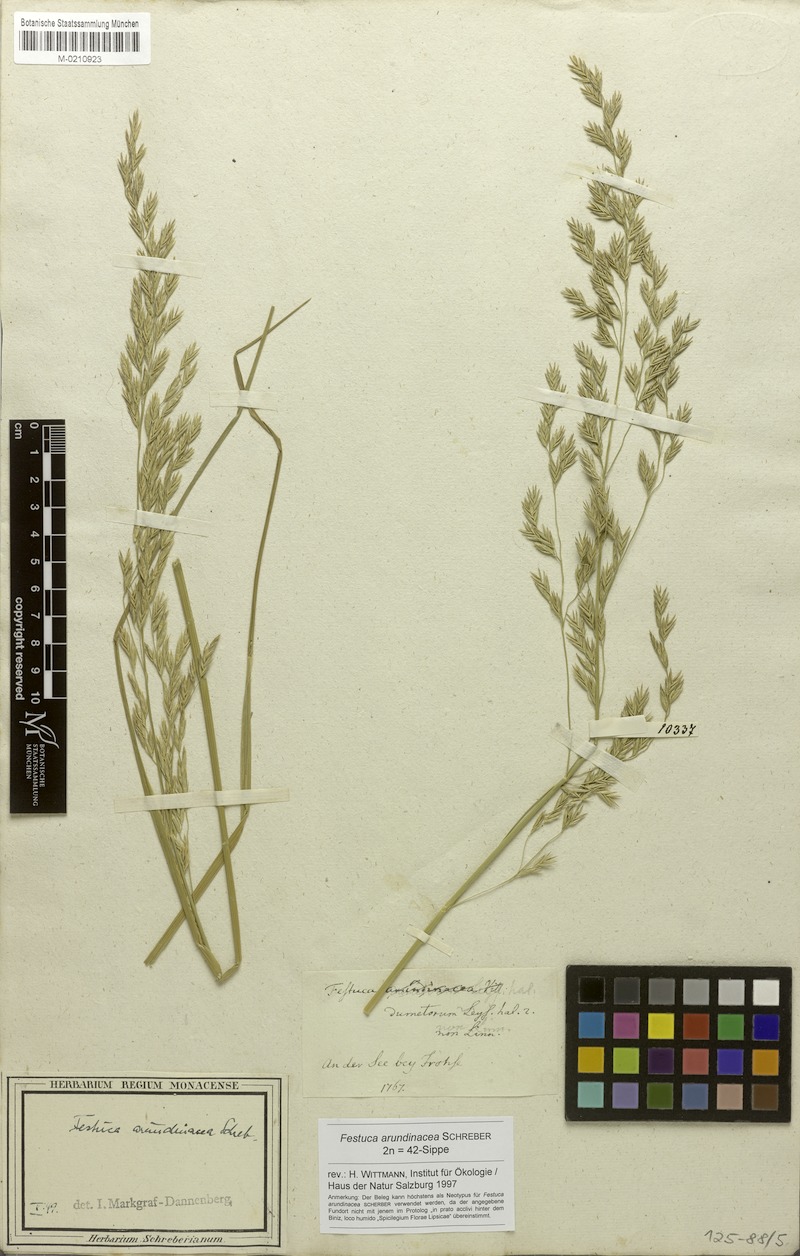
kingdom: Plantae
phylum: Tracheophyta
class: Liliopsida
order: Poales
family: Poaceae
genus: Lolium
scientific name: Lolium arundinaceum
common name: Reed fescue
